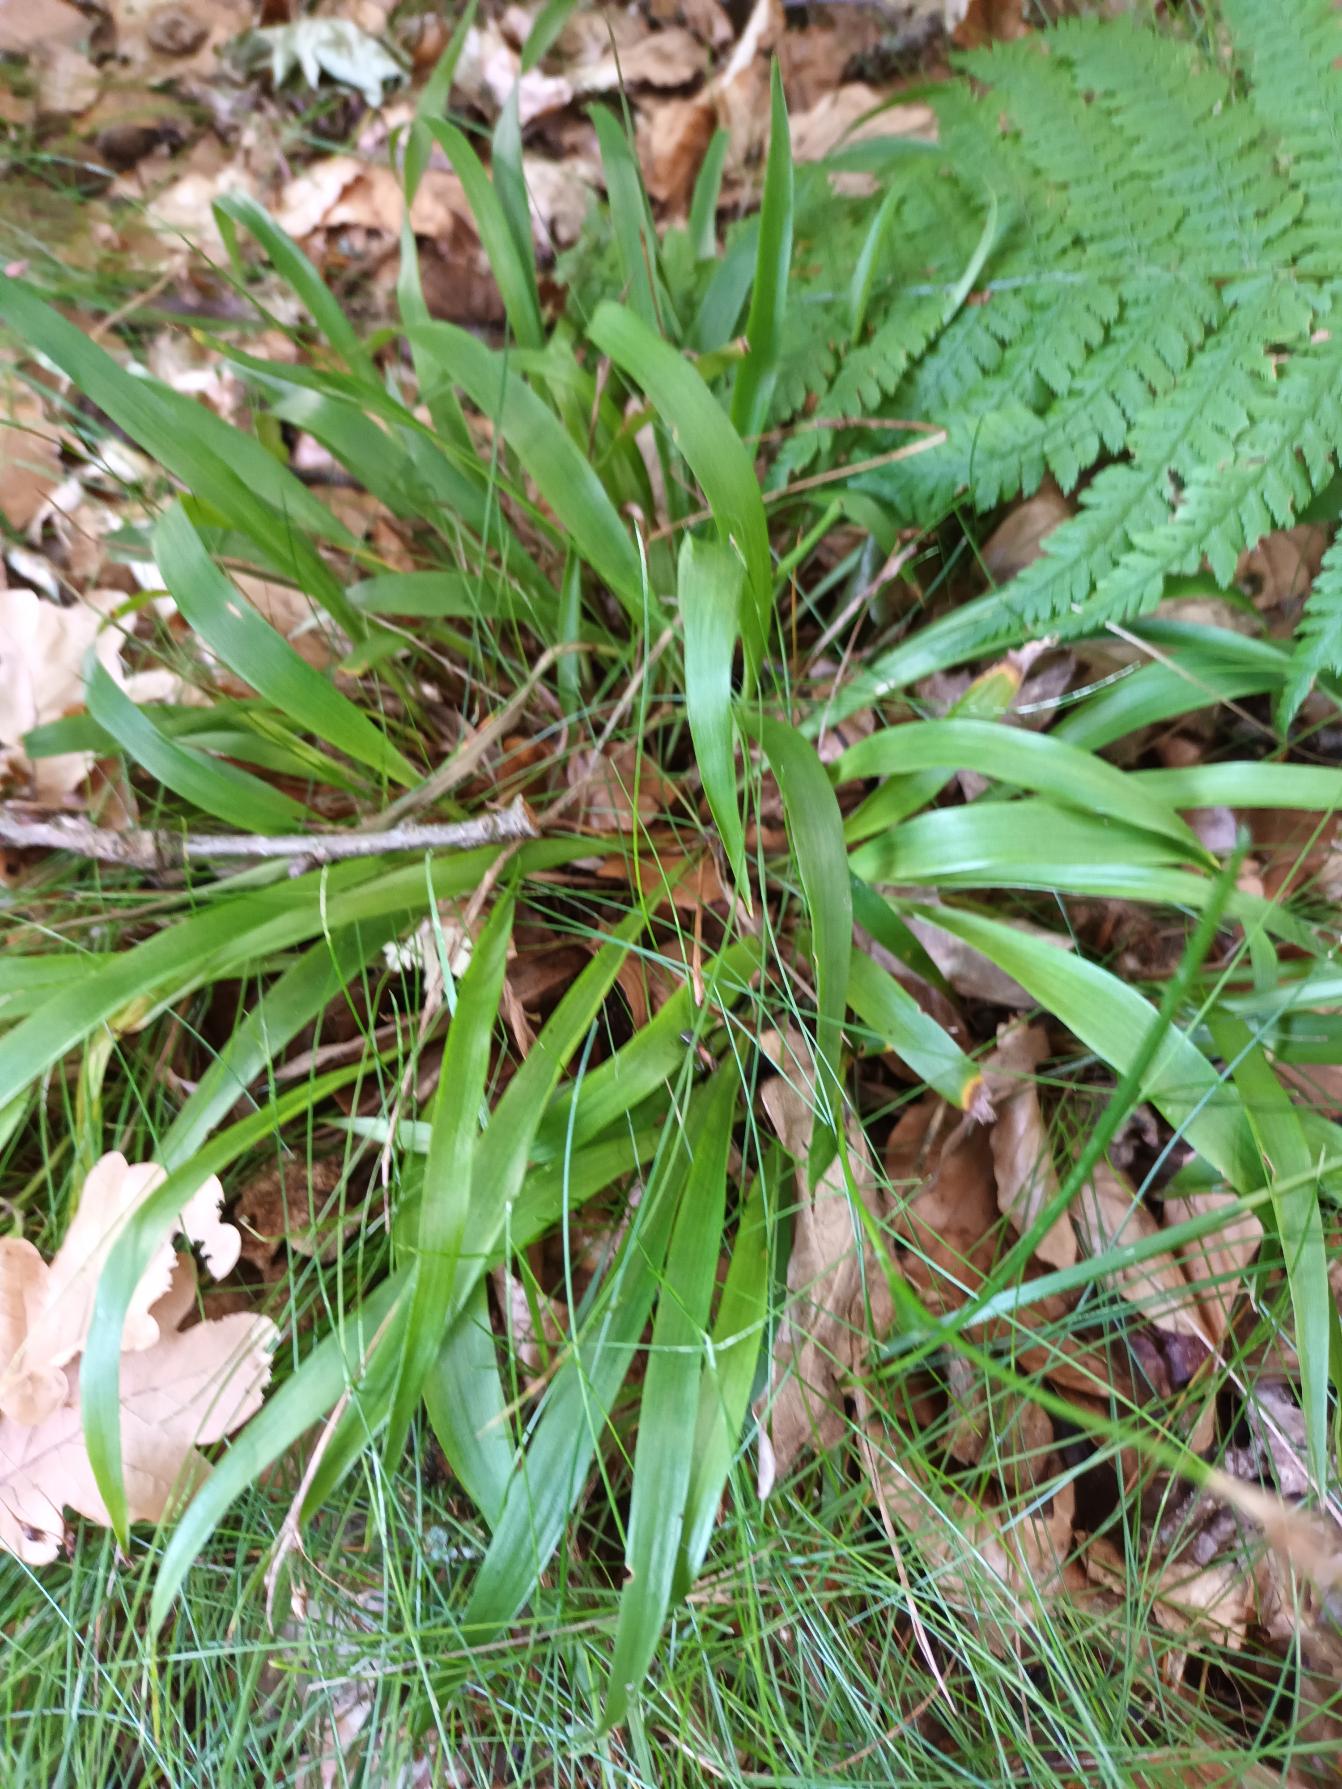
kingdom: Plantae
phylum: Tracheophyta
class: Liliopsida
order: Poales
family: Juncaceae
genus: Luzula
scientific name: Luzula pilosa
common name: Håret frytle
